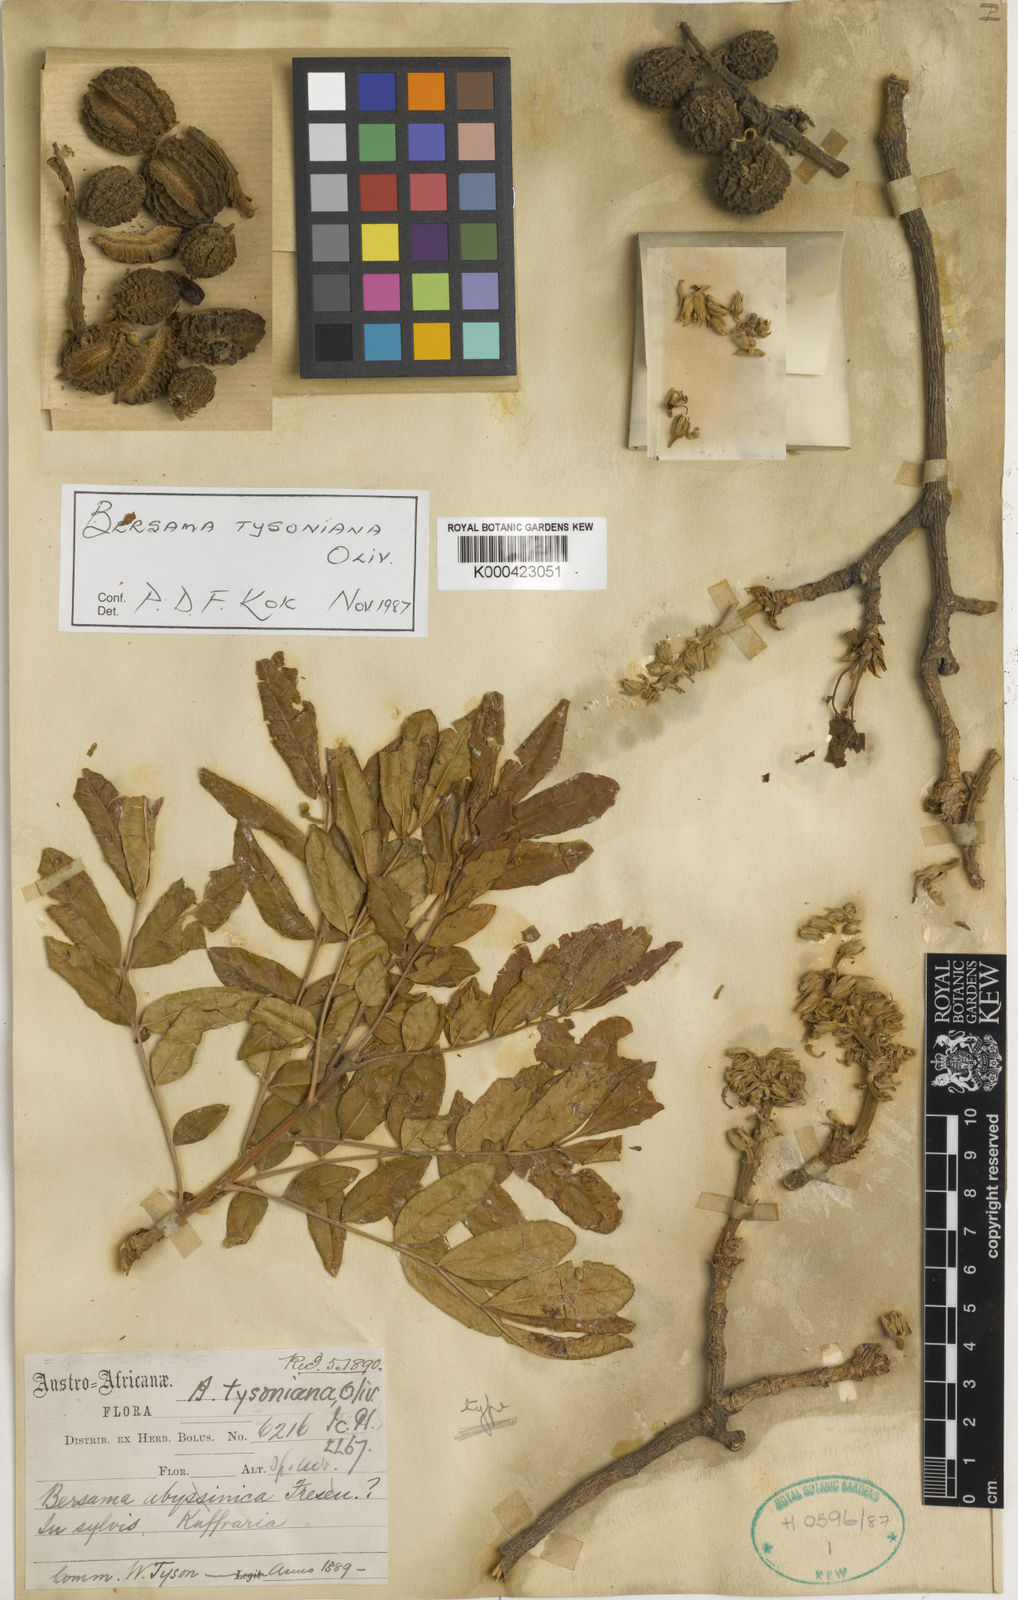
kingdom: Plantae
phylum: Tracheophyta
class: Magnoliopsida
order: Geraniales
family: Melianthaceae
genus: Bersama
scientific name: Bersama tysoniana
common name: Common white ash
